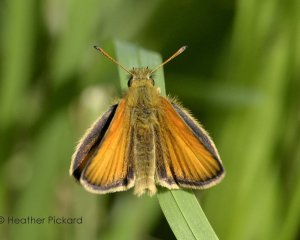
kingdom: Animalia
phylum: Arthropoda
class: Insecta
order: Lepidoptera
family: Hesperiidae
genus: Thymelicus
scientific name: Thymelicus lineola
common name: European Skipper
